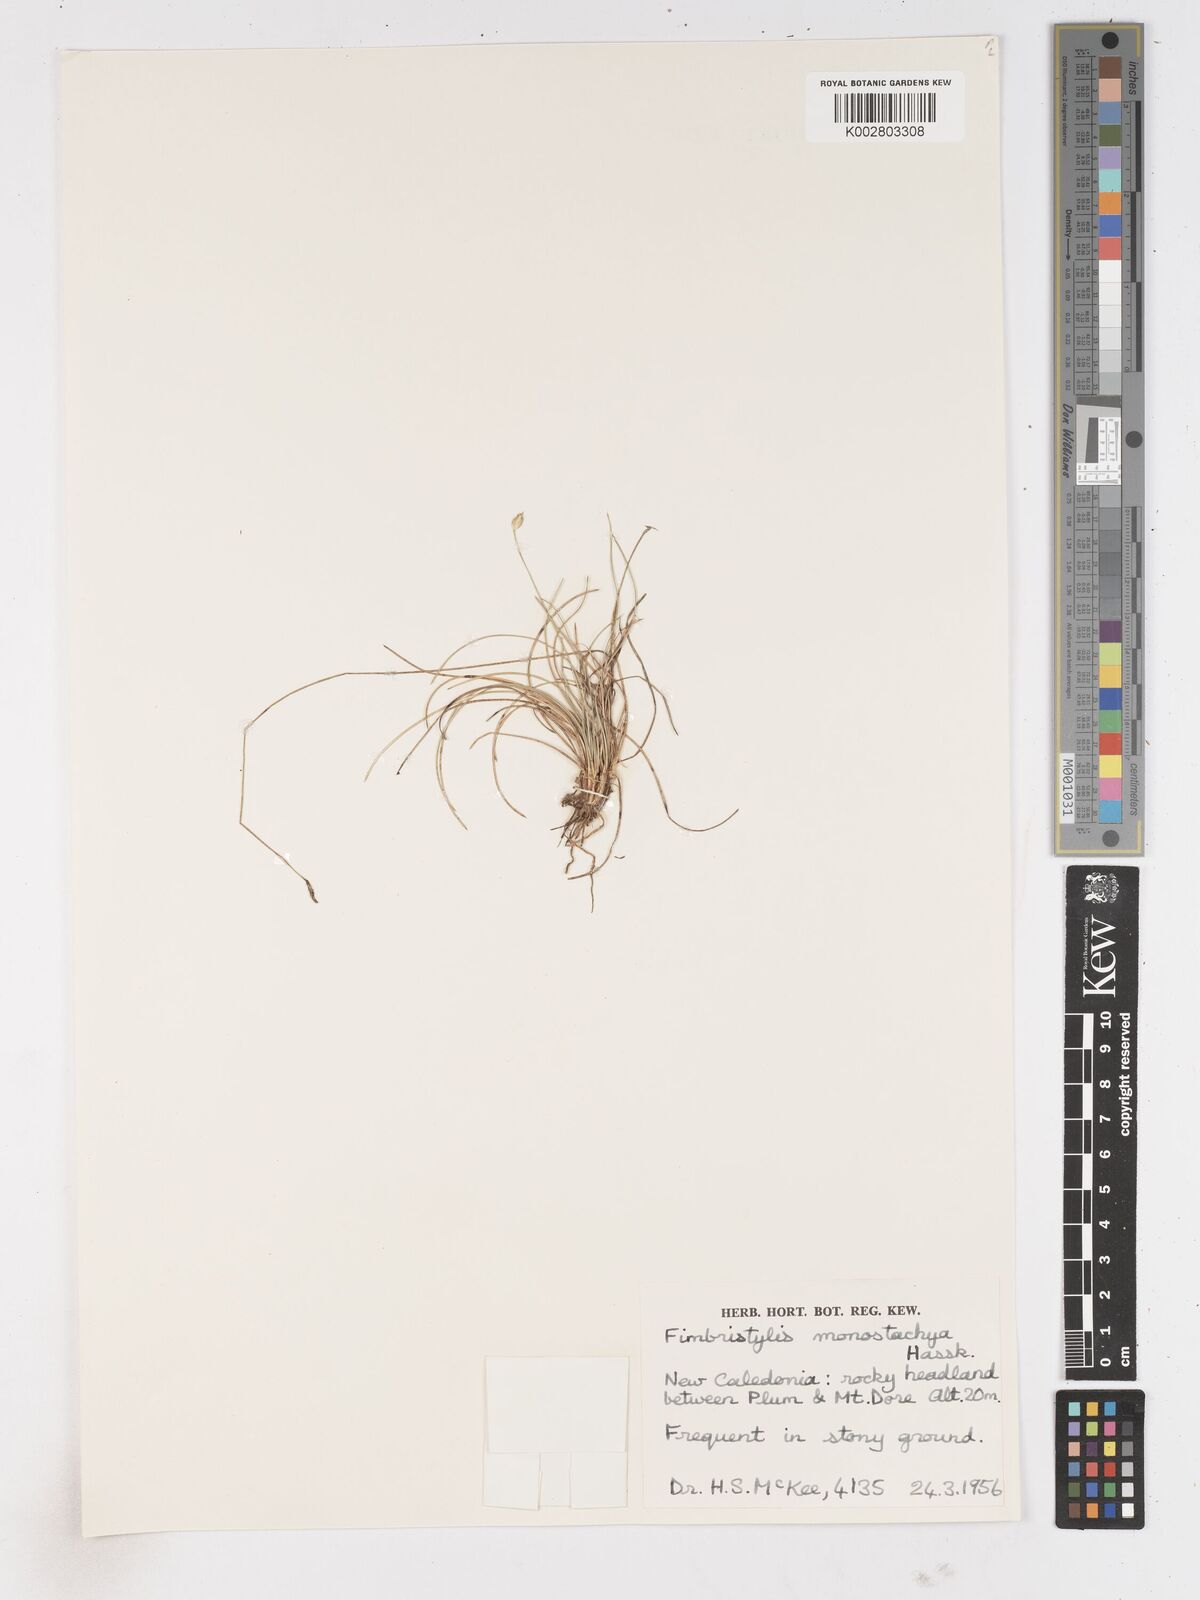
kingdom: Plantae
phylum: Tracheophyta
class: Liliopsida
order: Poales
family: Cyperaceae
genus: Abildgaardia
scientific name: Abildgaardia ovata
